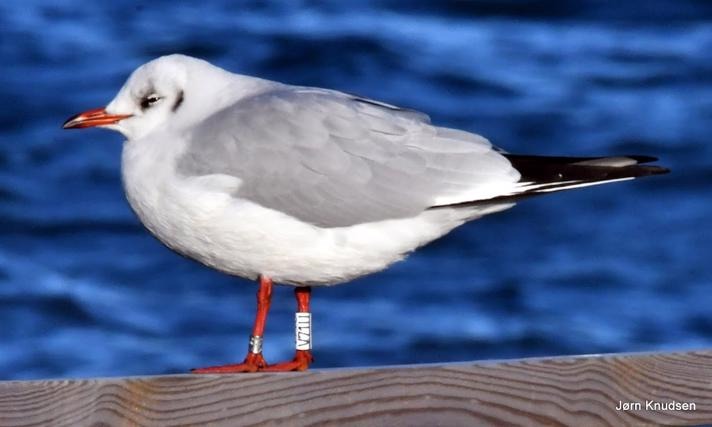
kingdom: Animalia
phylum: Chordata
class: Aves
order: Charadriiformes
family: Laridae
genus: Chroicocephalus
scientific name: Chroicocephalus ridibundus
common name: Hættemåge
